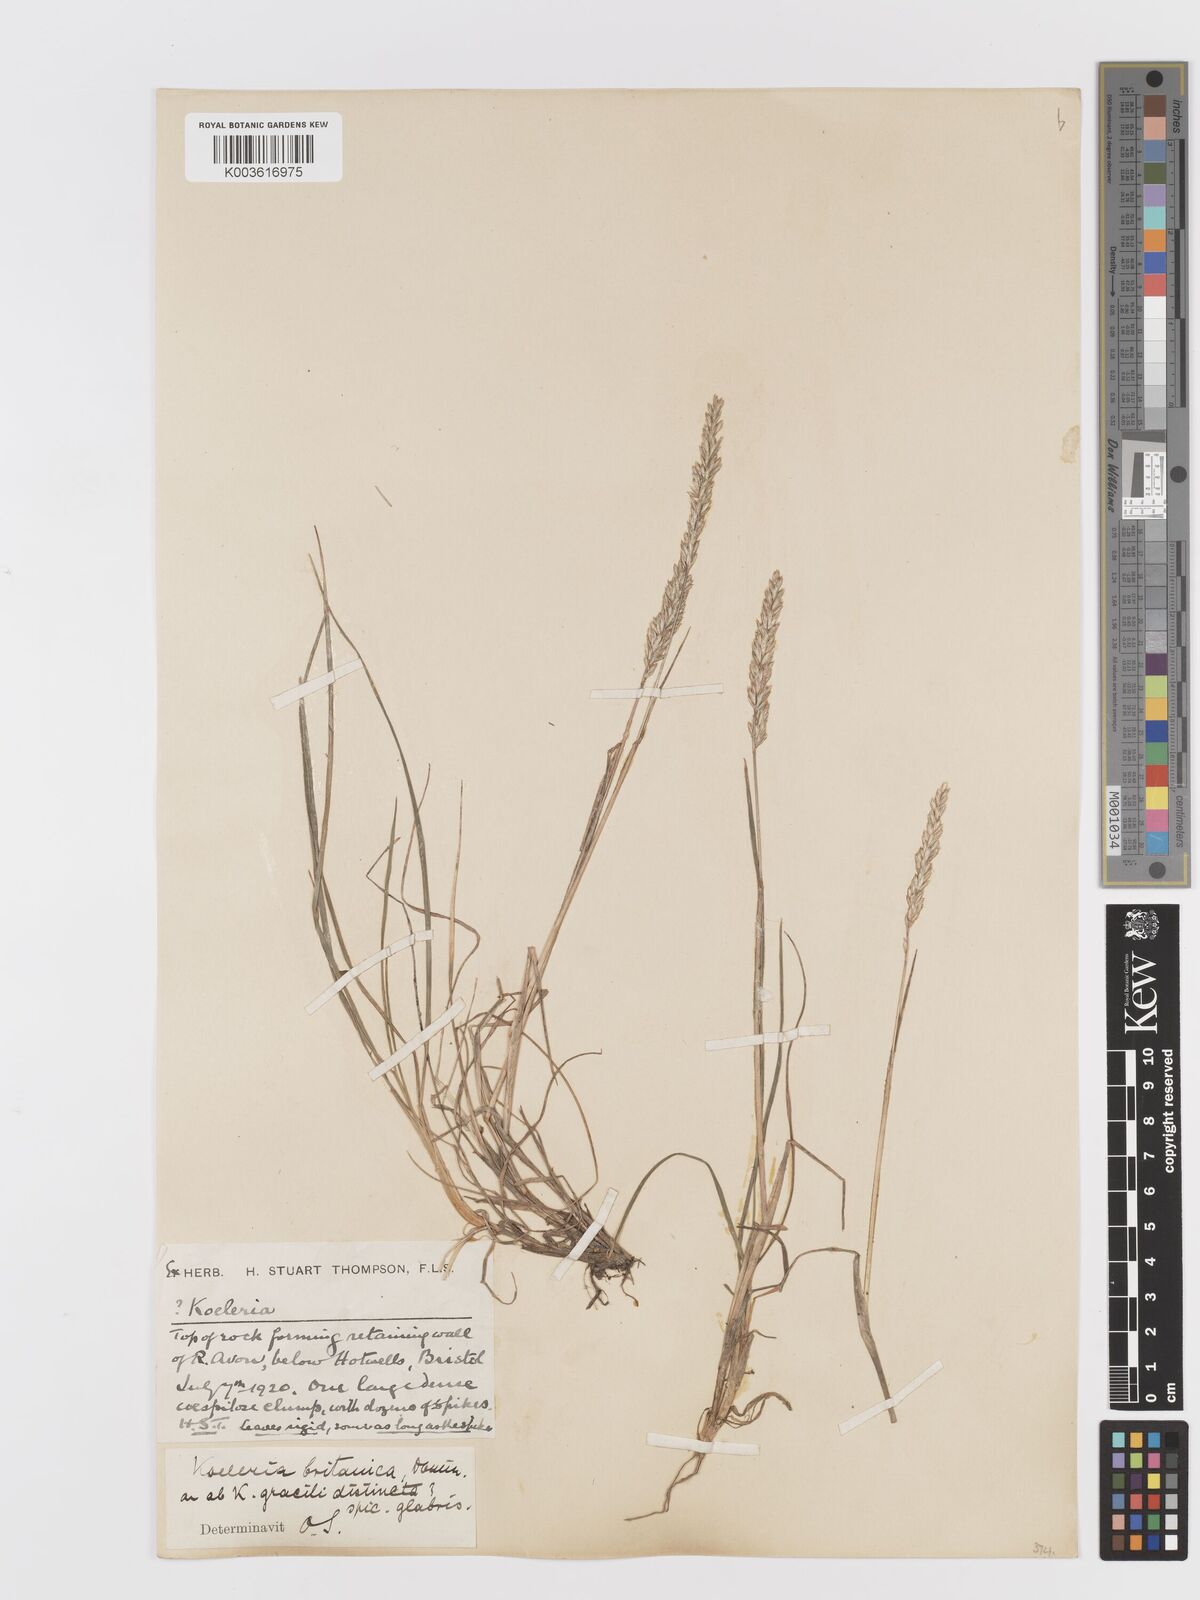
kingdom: Plantae
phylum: Tracheophyta
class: Liliopsida
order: Poales
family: Poaceae
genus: Koeleria
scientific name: Koeleria macrantha
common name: Crested hair-grass
